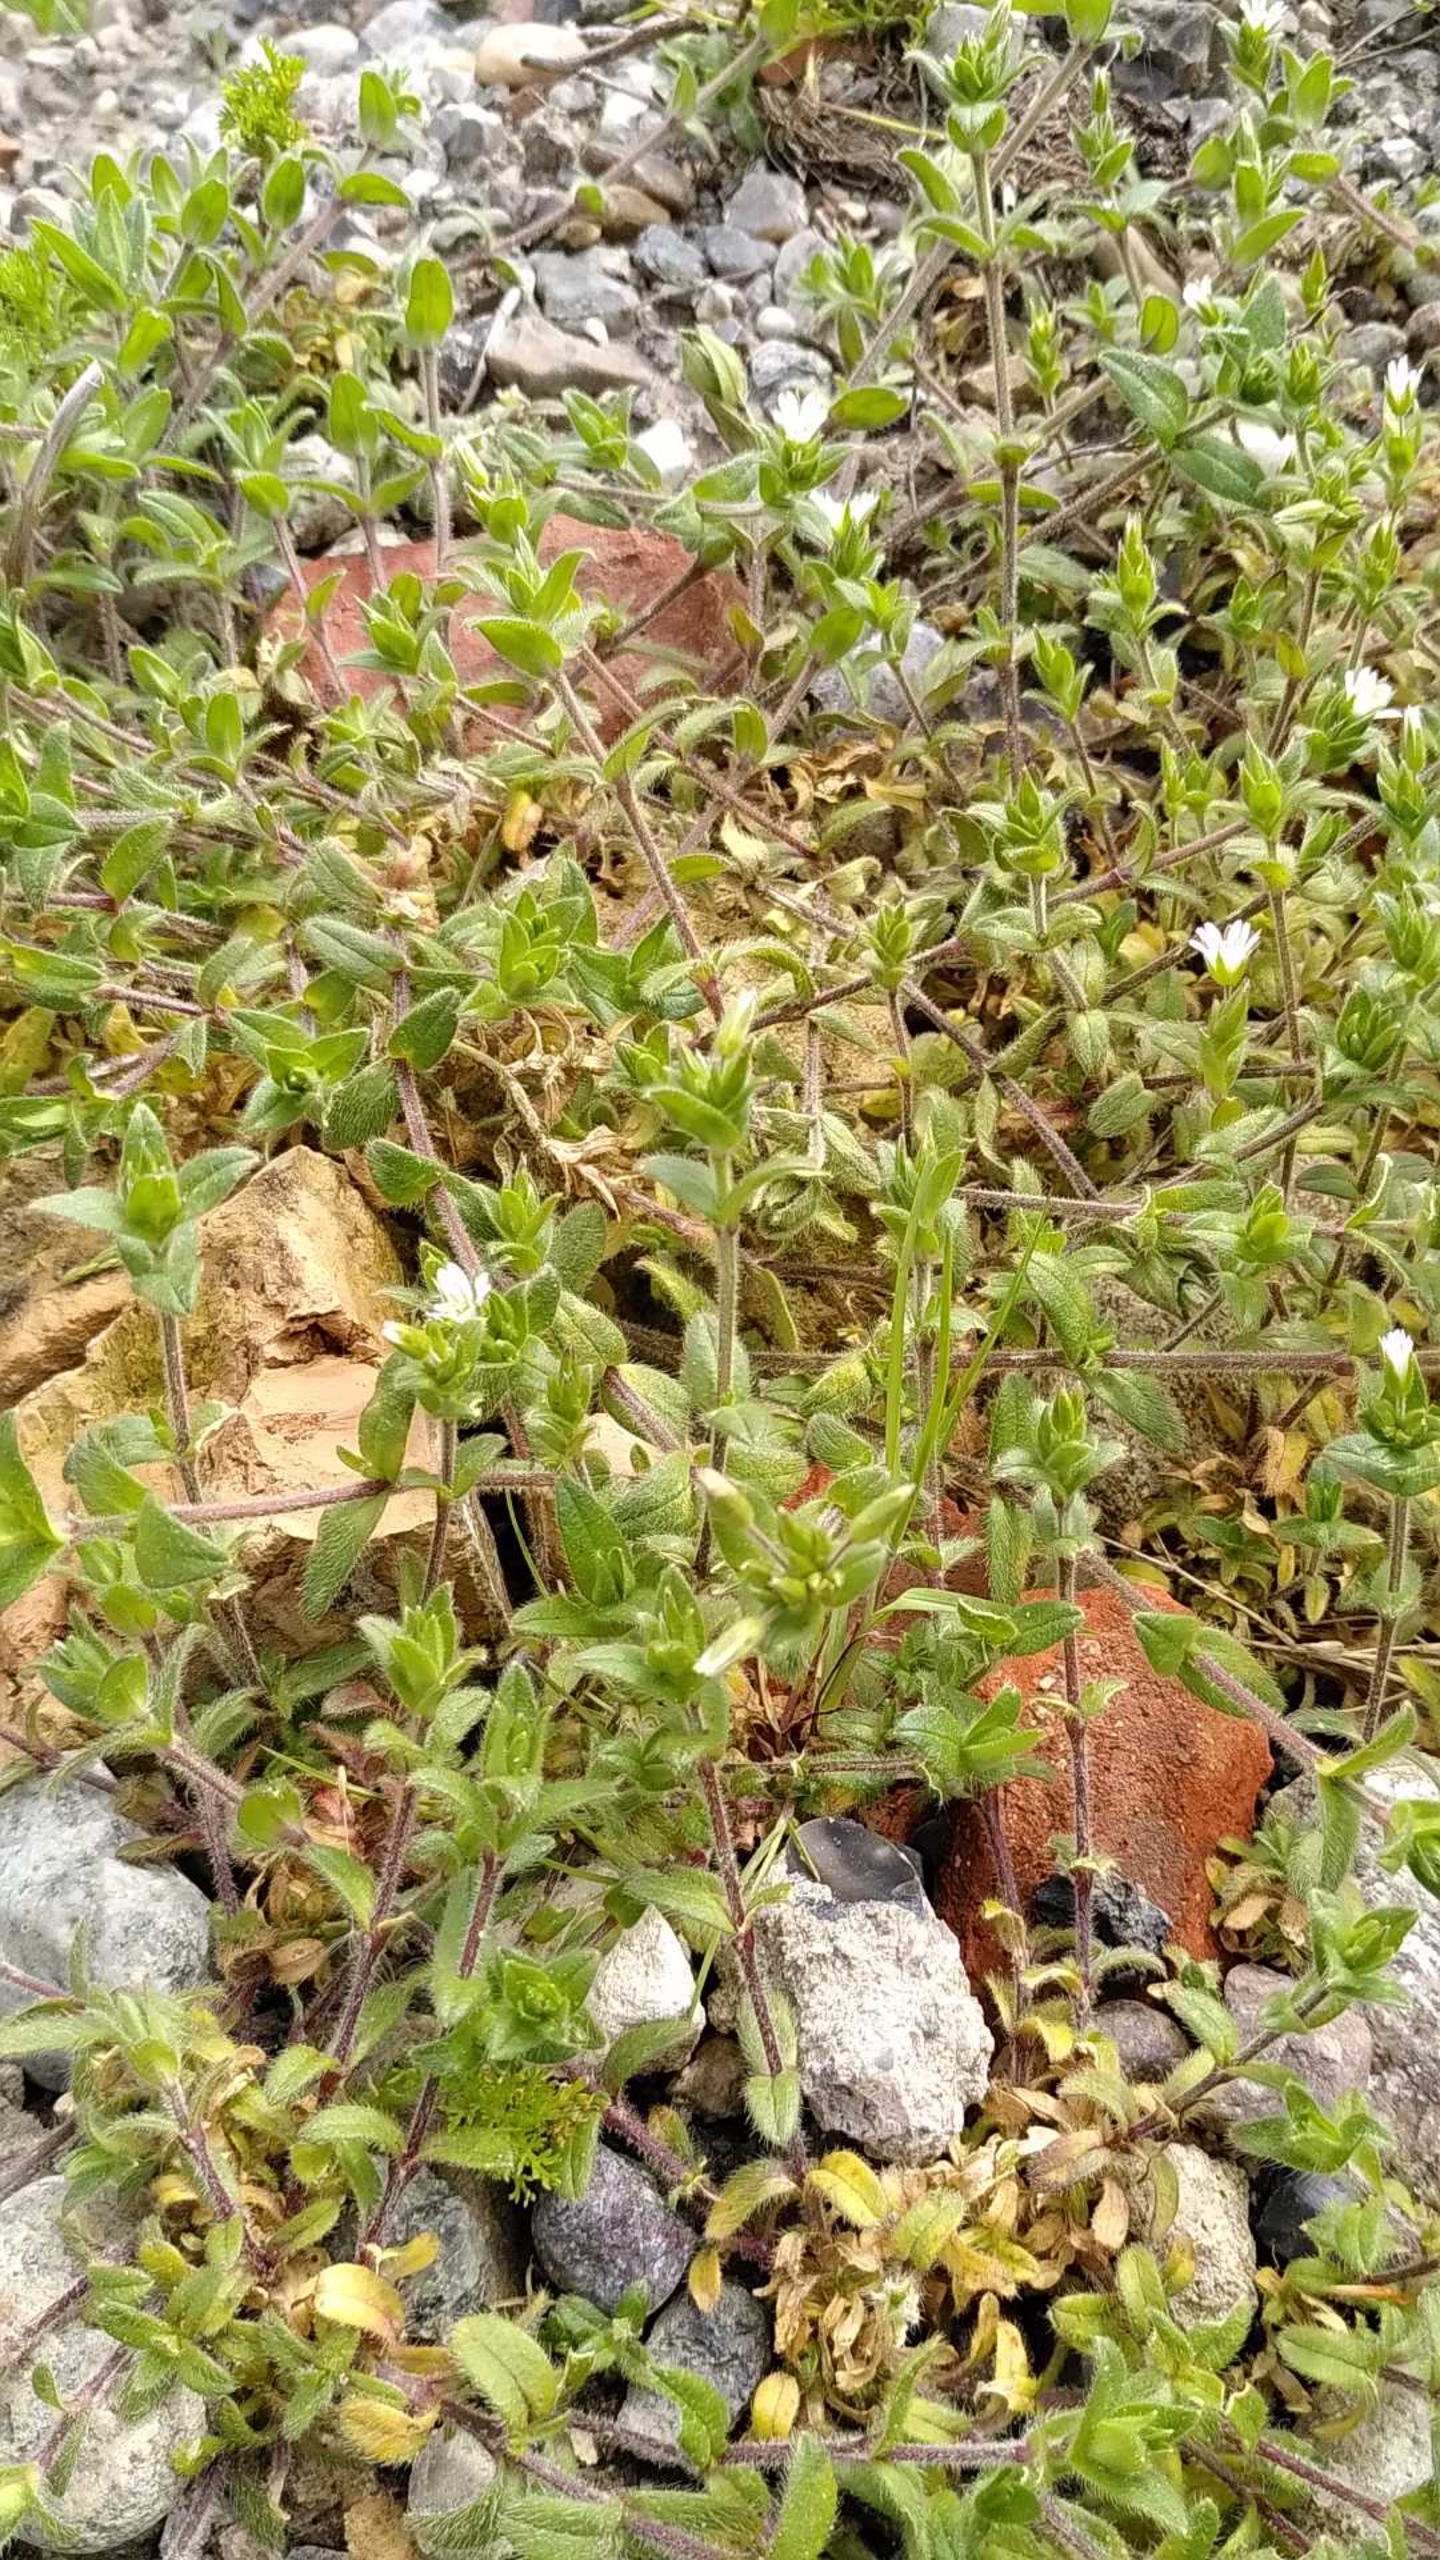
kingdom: Plantae
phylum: Tracheophyta
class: Magnoliopsida
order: Caryophyllales
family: Caryophyllaceae
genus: Cerastium
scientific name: Cerastium fontanum
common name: Almindelig hønsetarm
